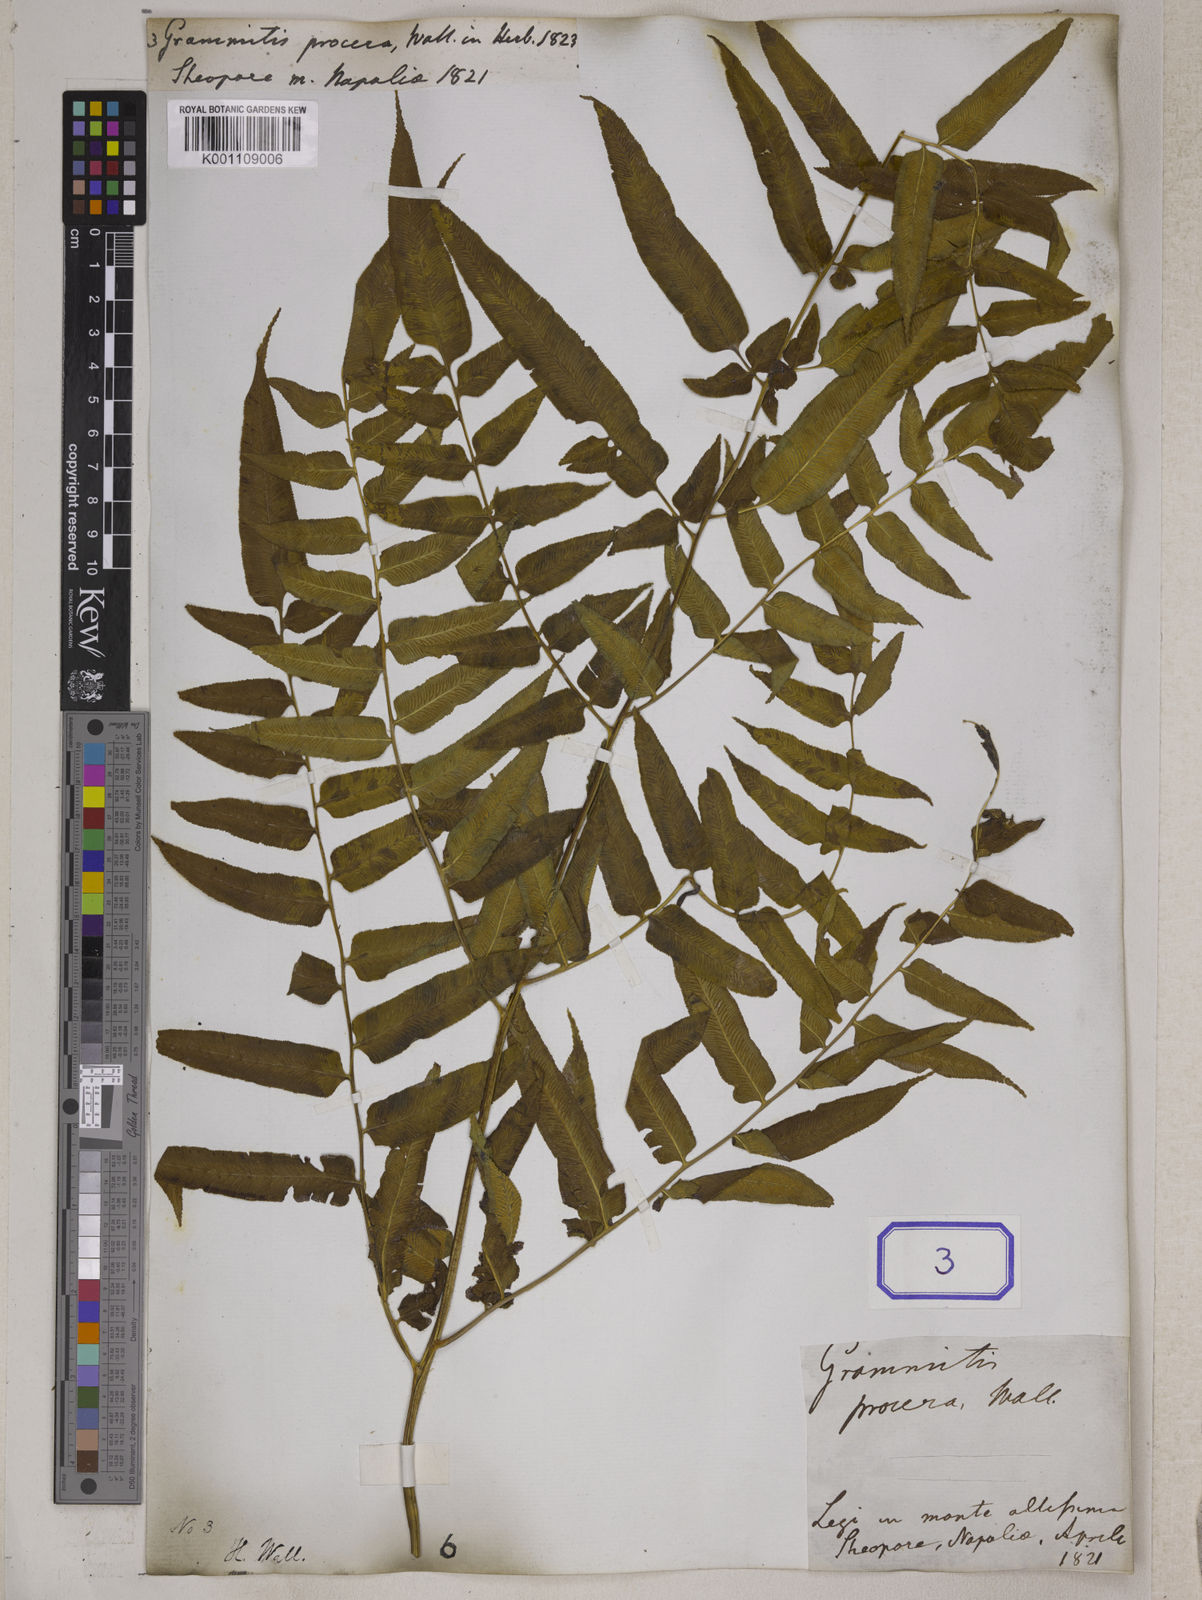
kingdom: Plantae
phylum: Tracheophyta
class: Polypodiopsida
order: Polypodiales
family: Pteridaceae
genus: Coniogramme
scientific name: Coniogramme procera
